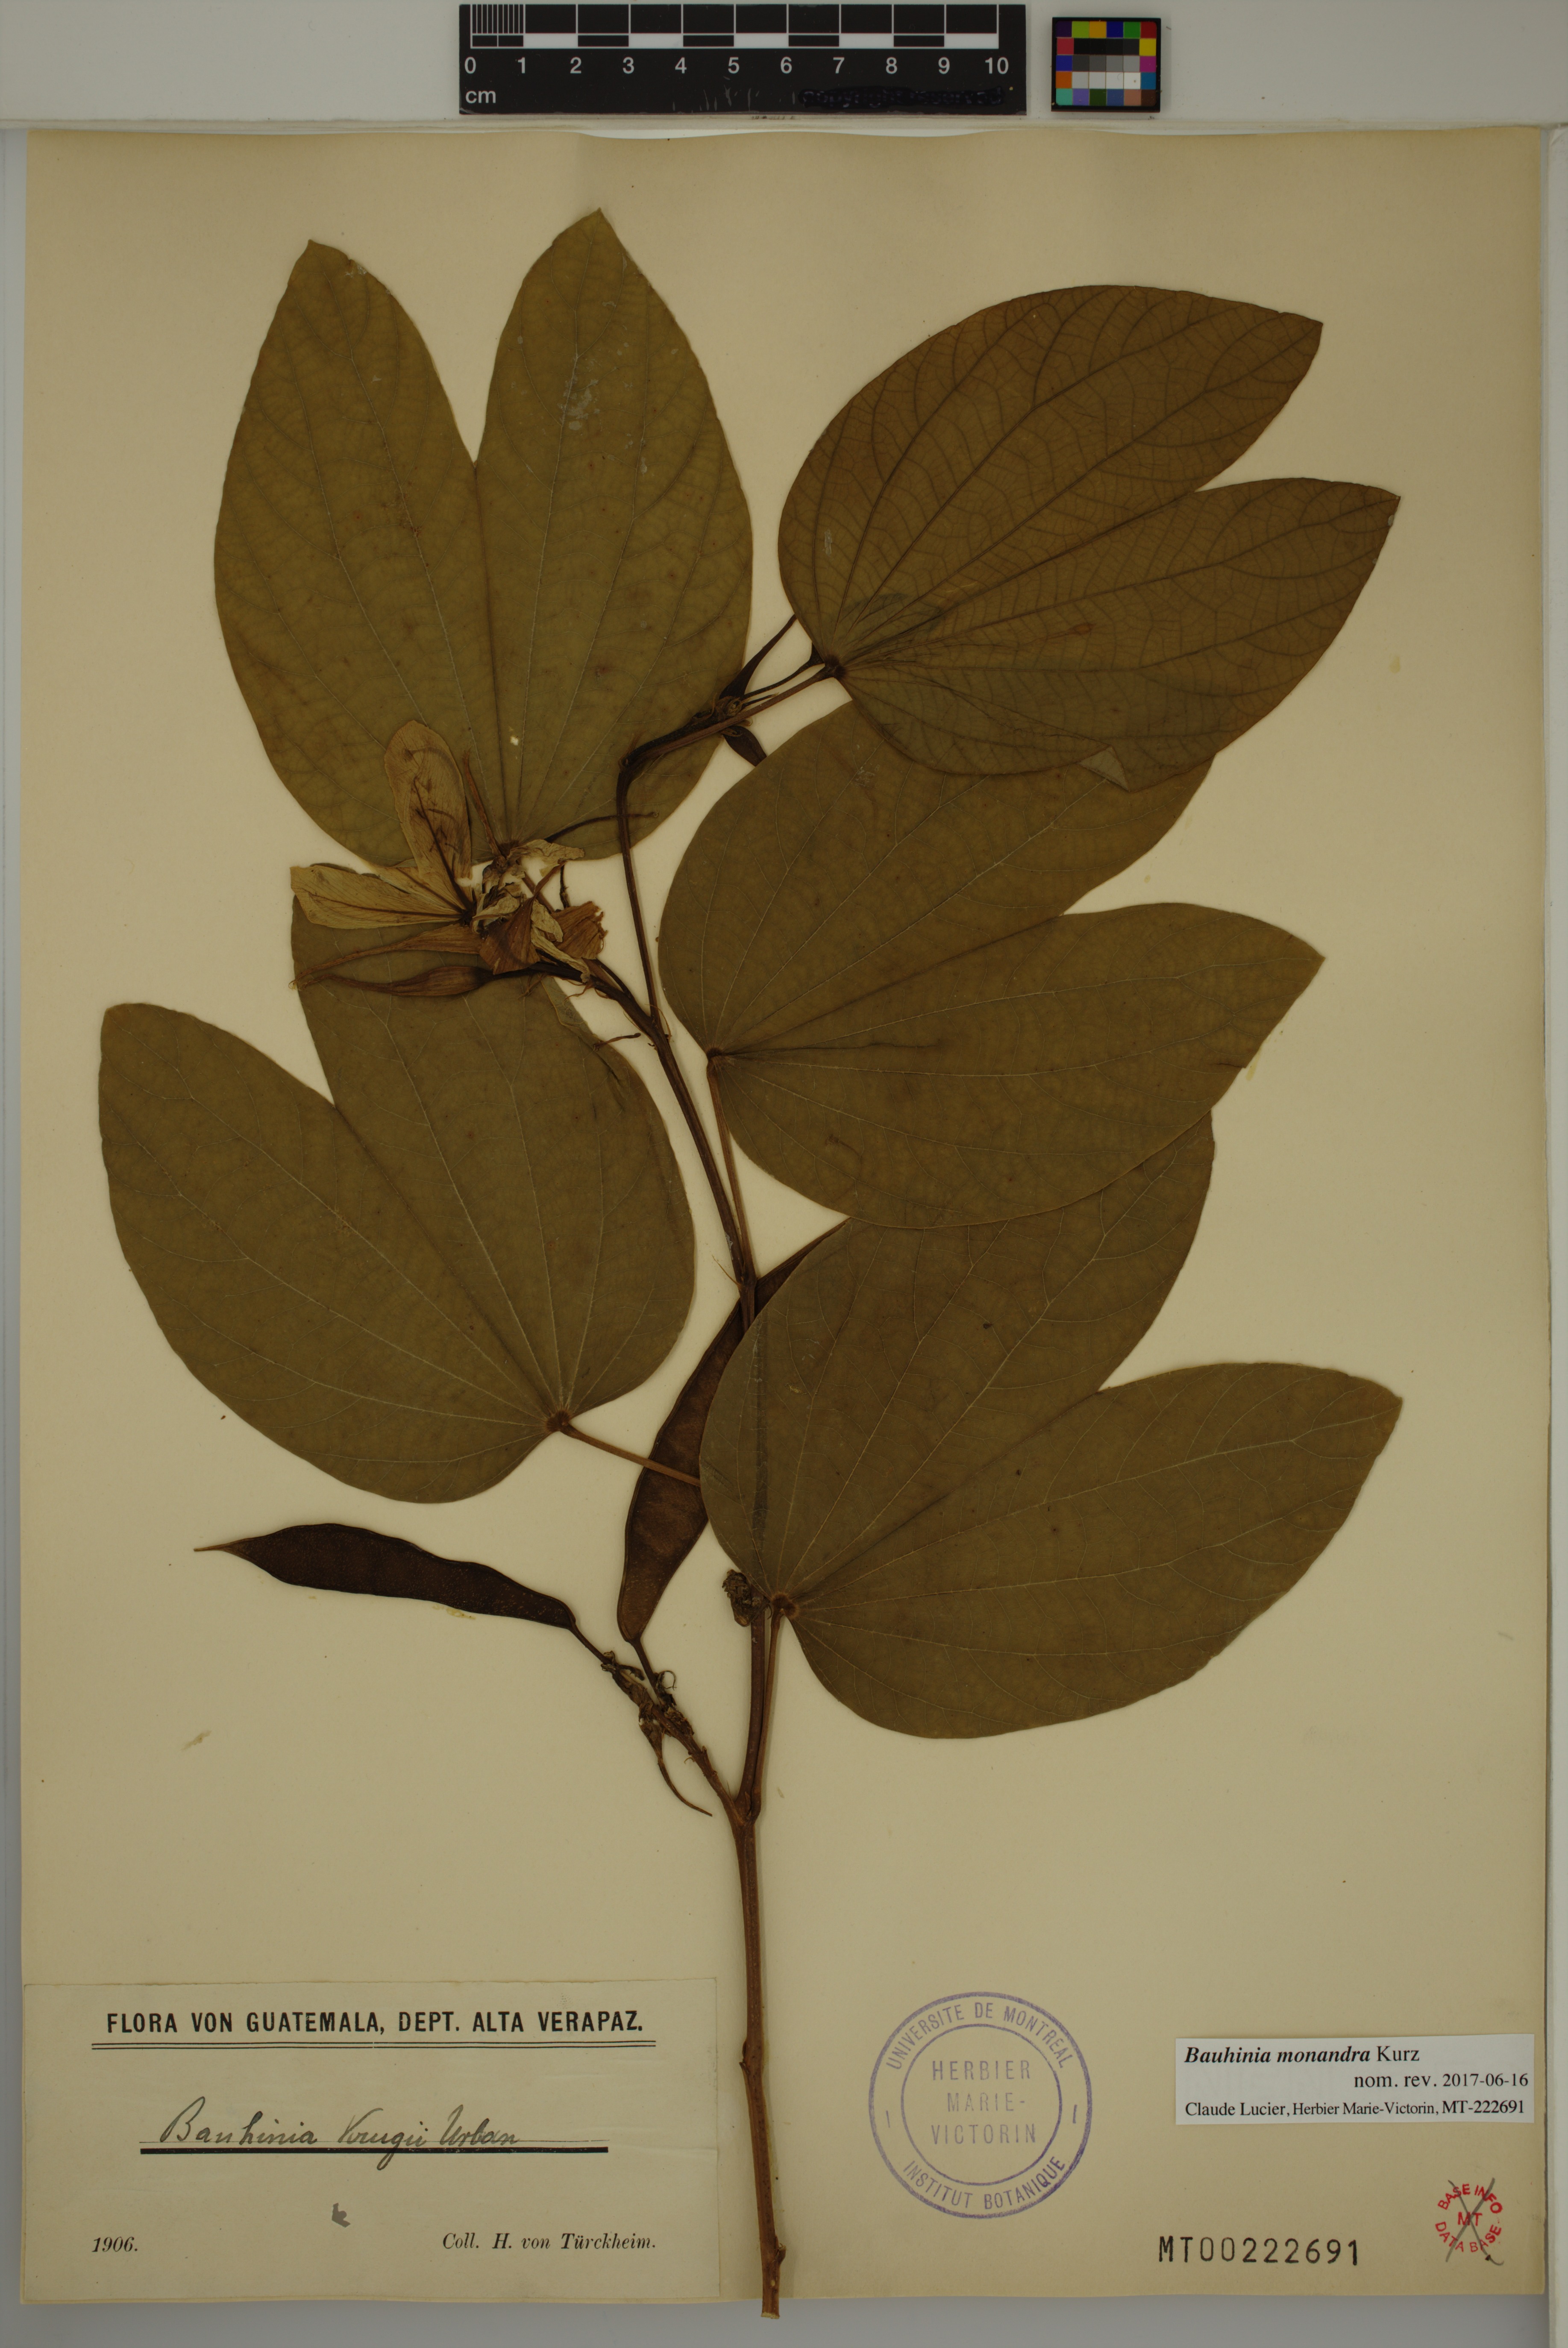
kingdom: Plantae
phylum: Tracheophyta
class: Magnoliopsida
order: Fabales
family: Fabaceae
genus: Bauhinia
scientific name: Bauhinia monandra
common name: Napoleon's plume
